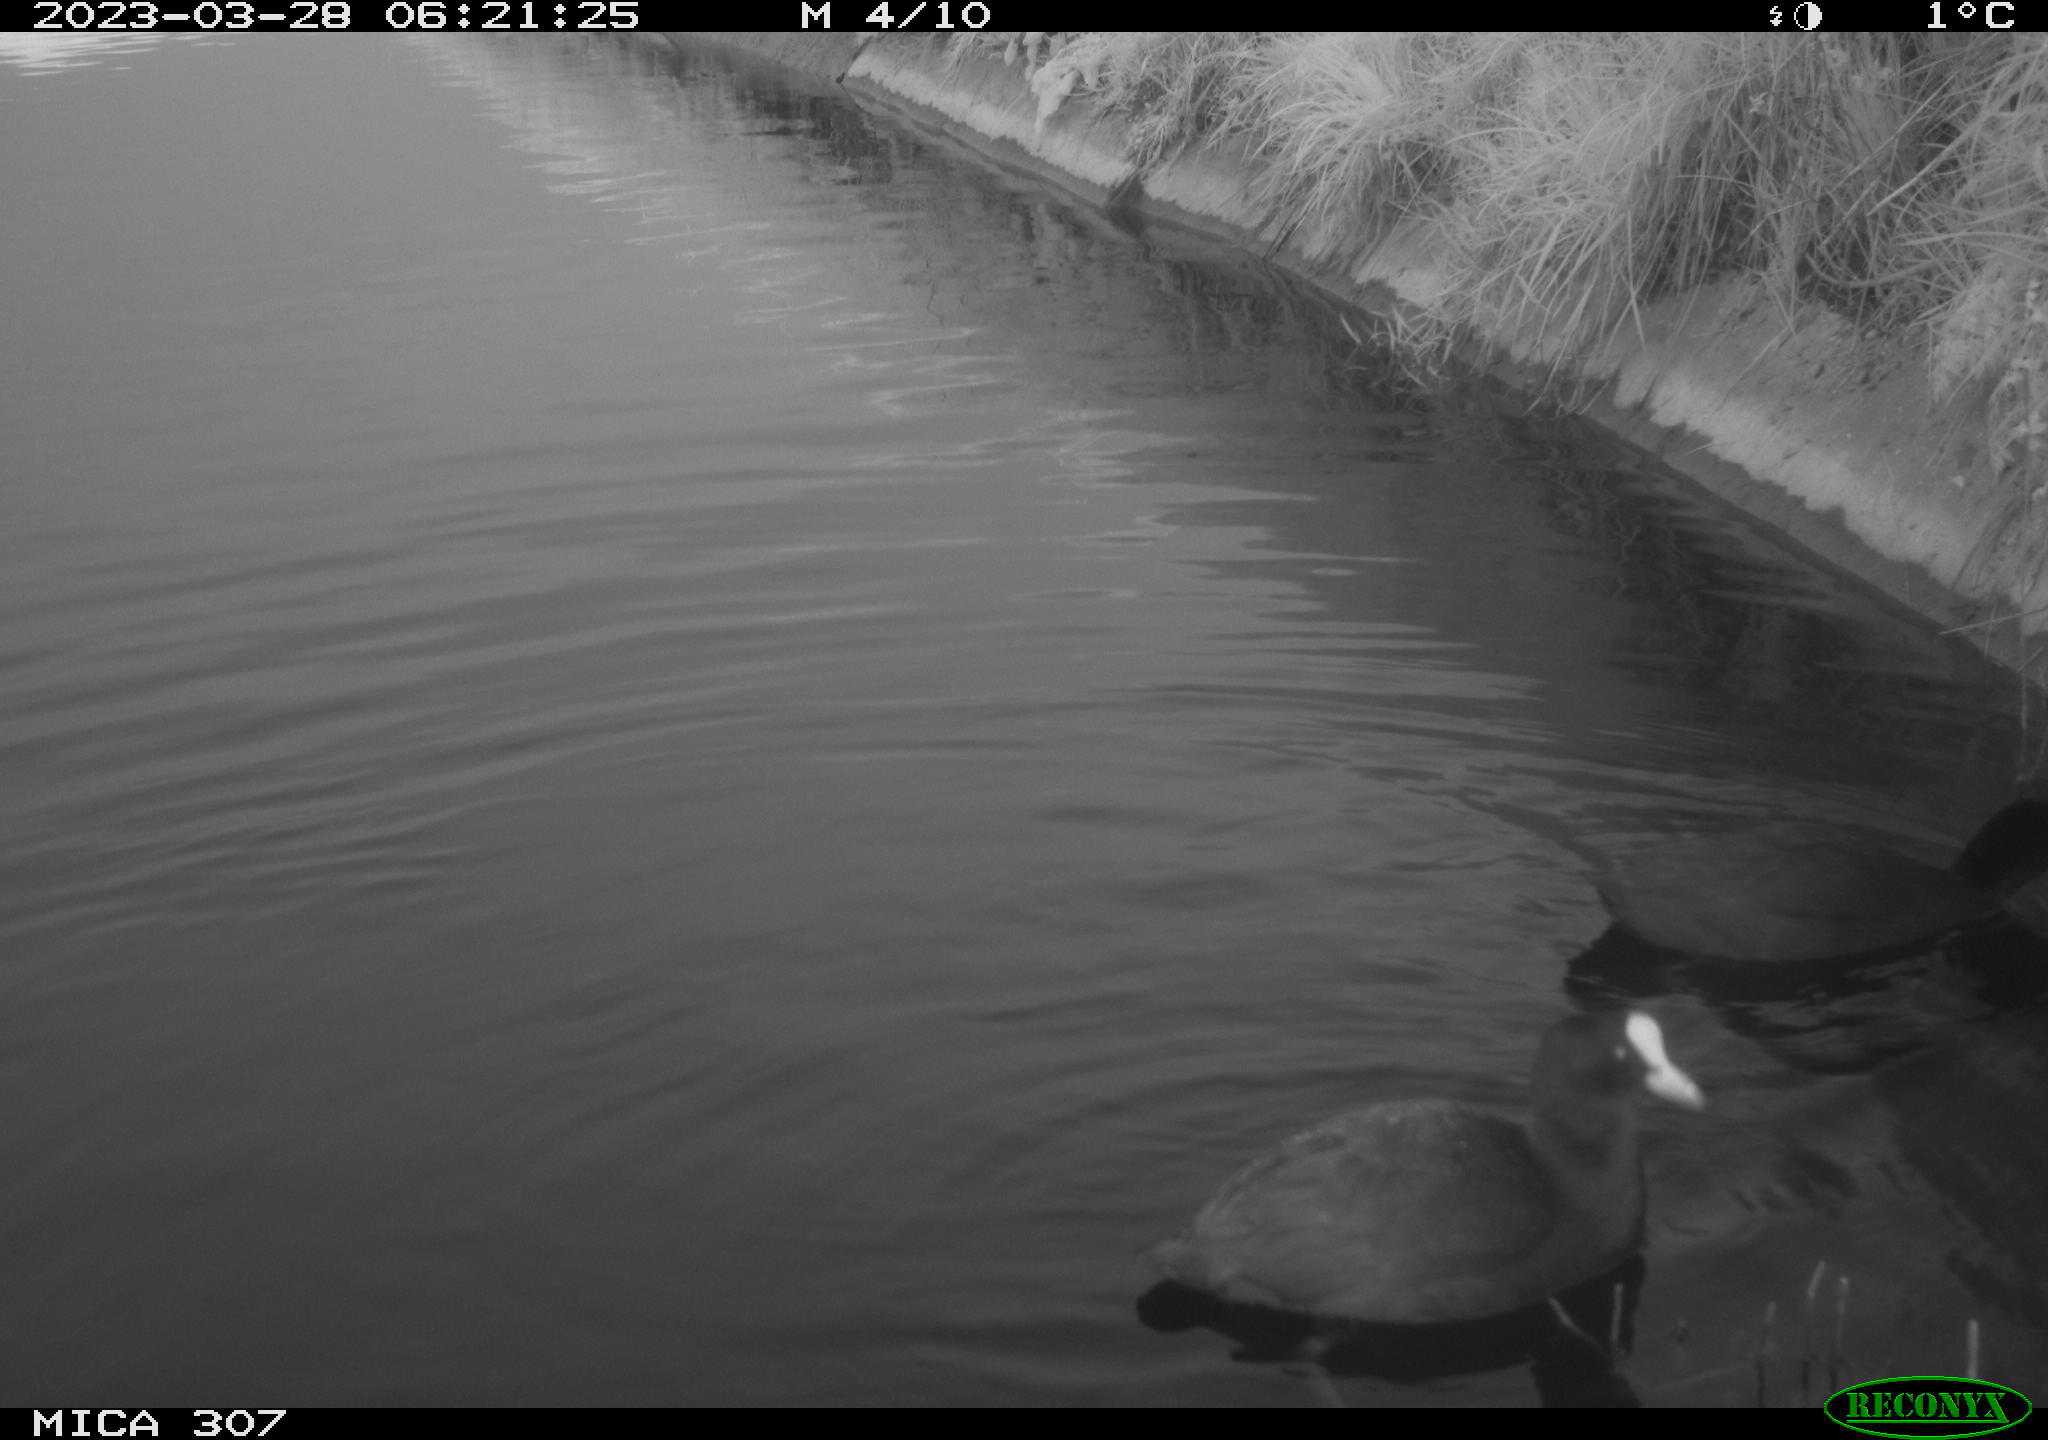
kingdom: Animalia
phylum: Chordata
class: Aves
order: Gruiformes
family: Rallidae
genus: Fulica
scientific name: Fulica atra
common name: Eurasian coot
